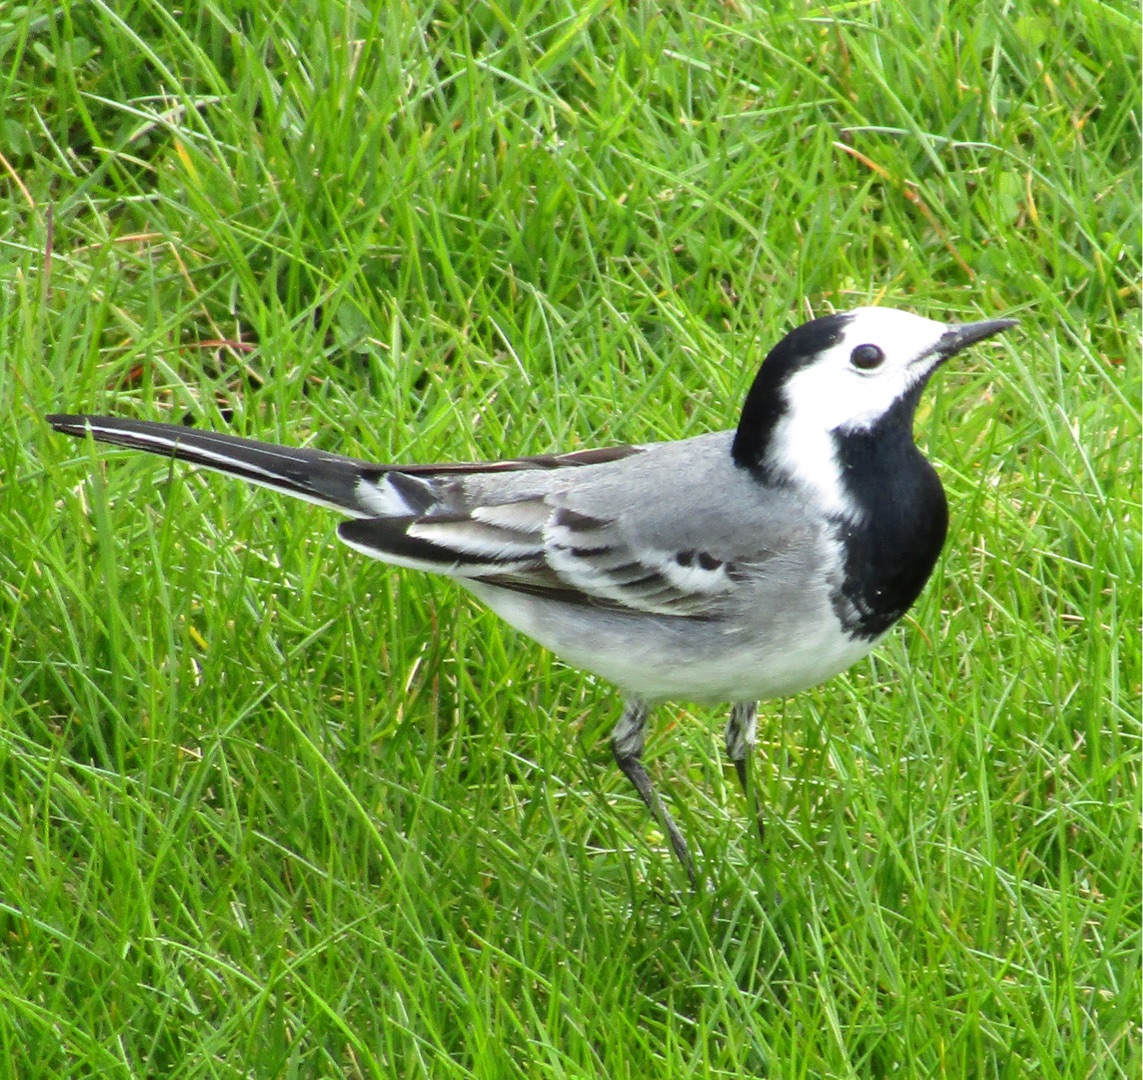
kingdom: Animalia
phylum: Chordata
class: Aves
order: Passeriformes
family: Motacillidae
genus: Motacilla
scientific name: Motacilla alba
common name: Hvid vipstjert
